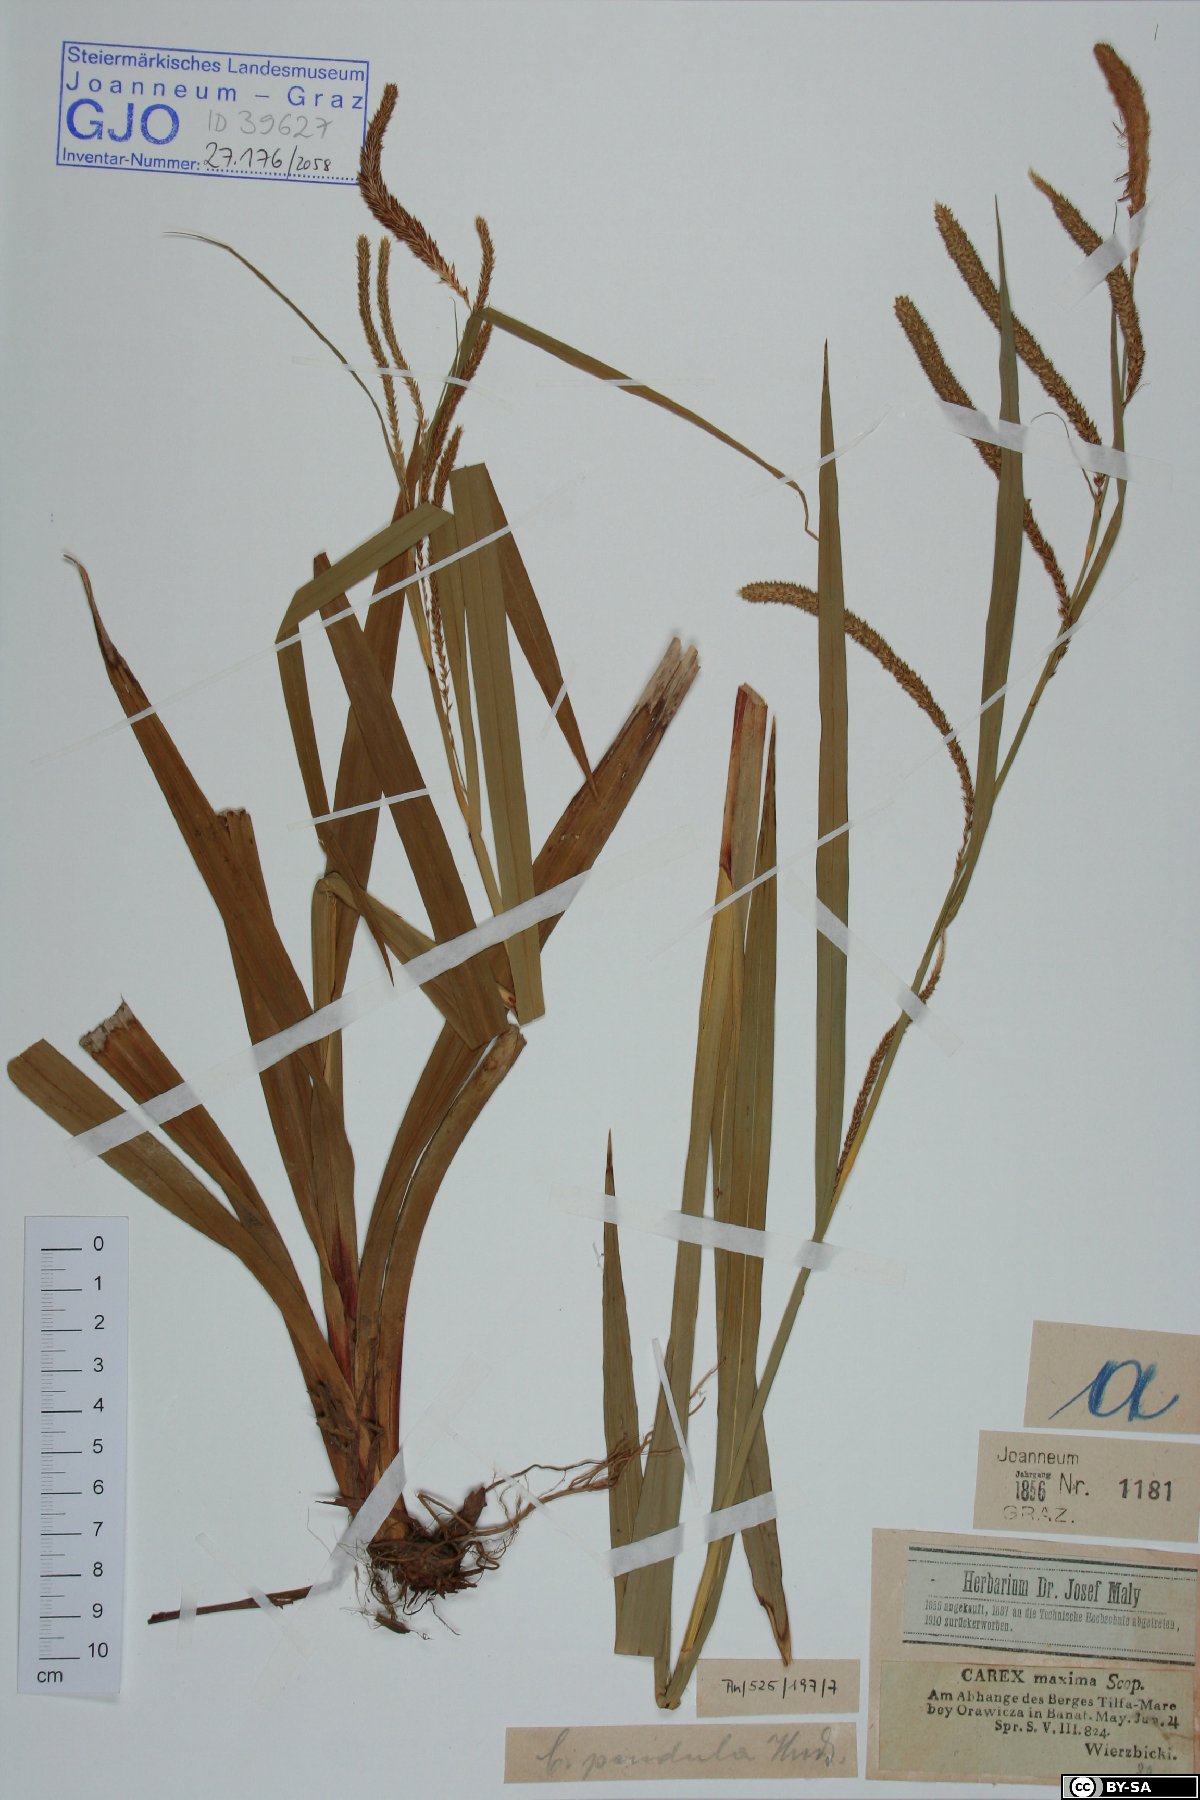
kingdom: Plantae
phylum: Tracheophyta
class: Liliopsida
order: Poales
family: Cyperaceae
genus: Carex
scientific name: Carex pendula
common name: Pendulous sedge
